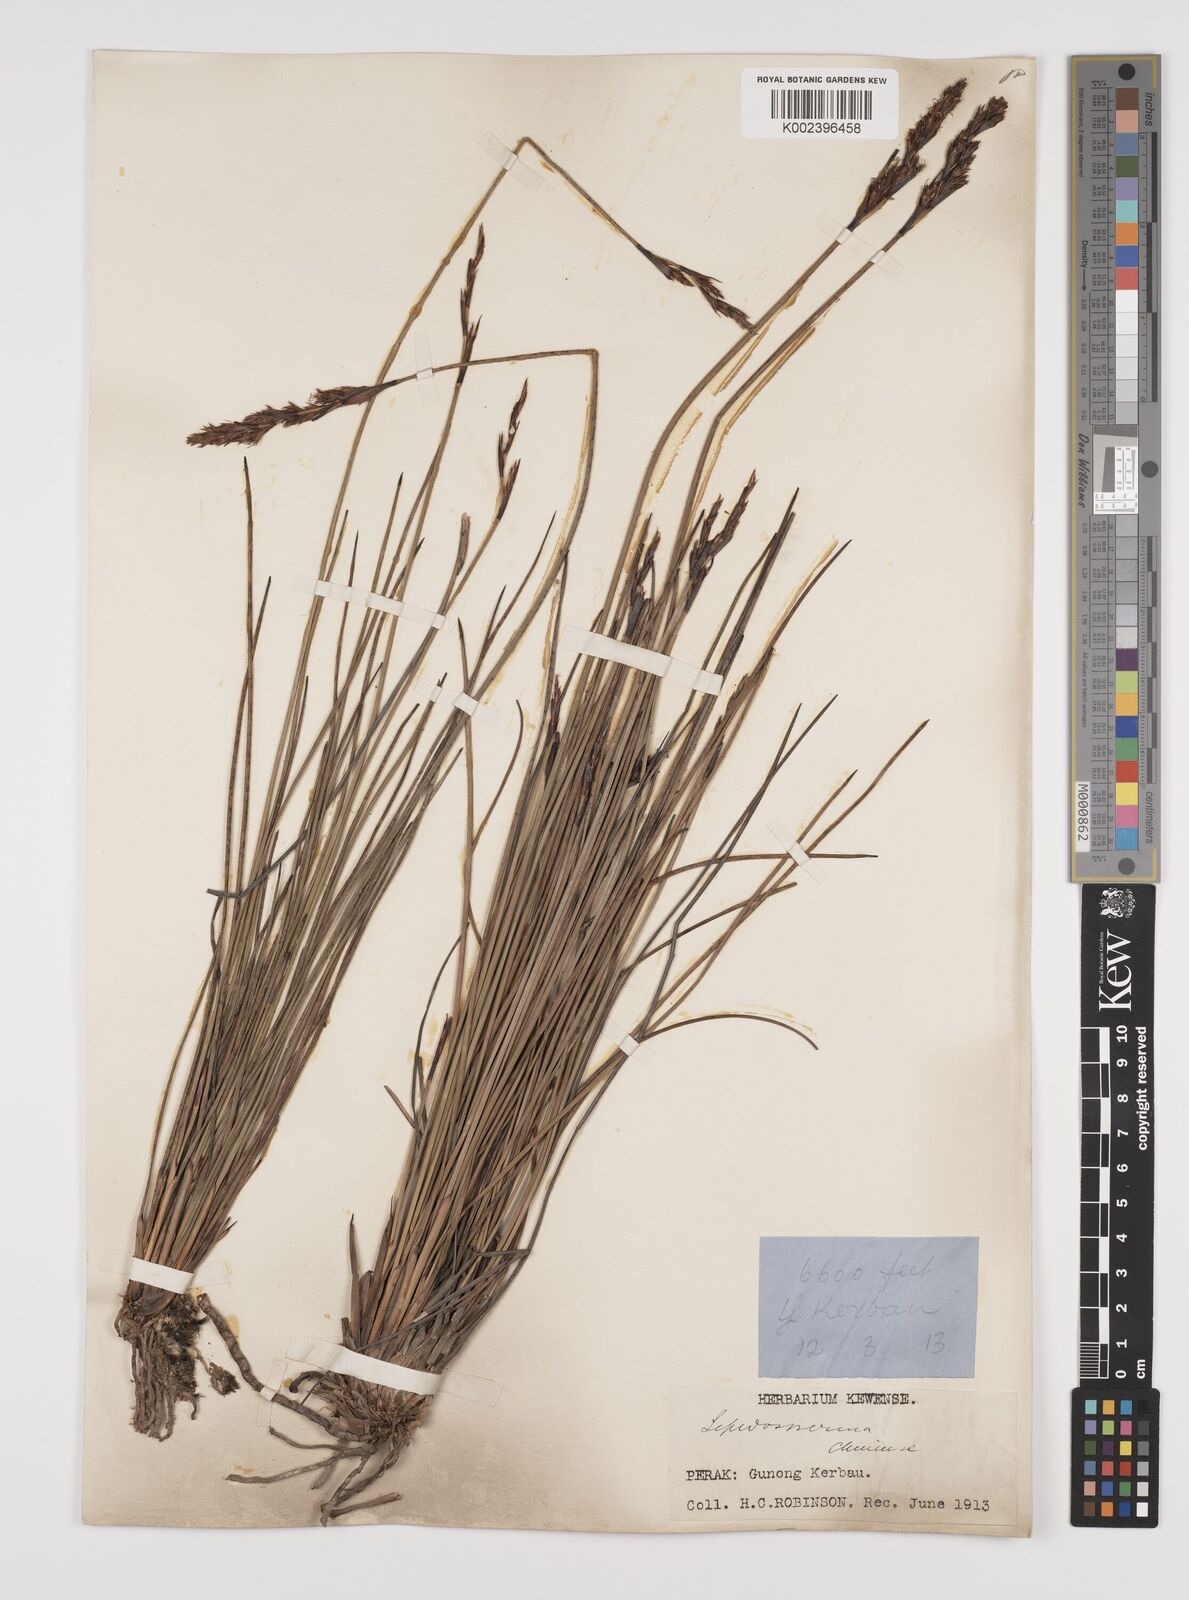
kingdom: Plantae
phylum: Tracheophyta
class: Liliopsida
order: Poales
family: Cyperaceae
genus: Lepidosperma
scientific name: Lepidosperma chinense
